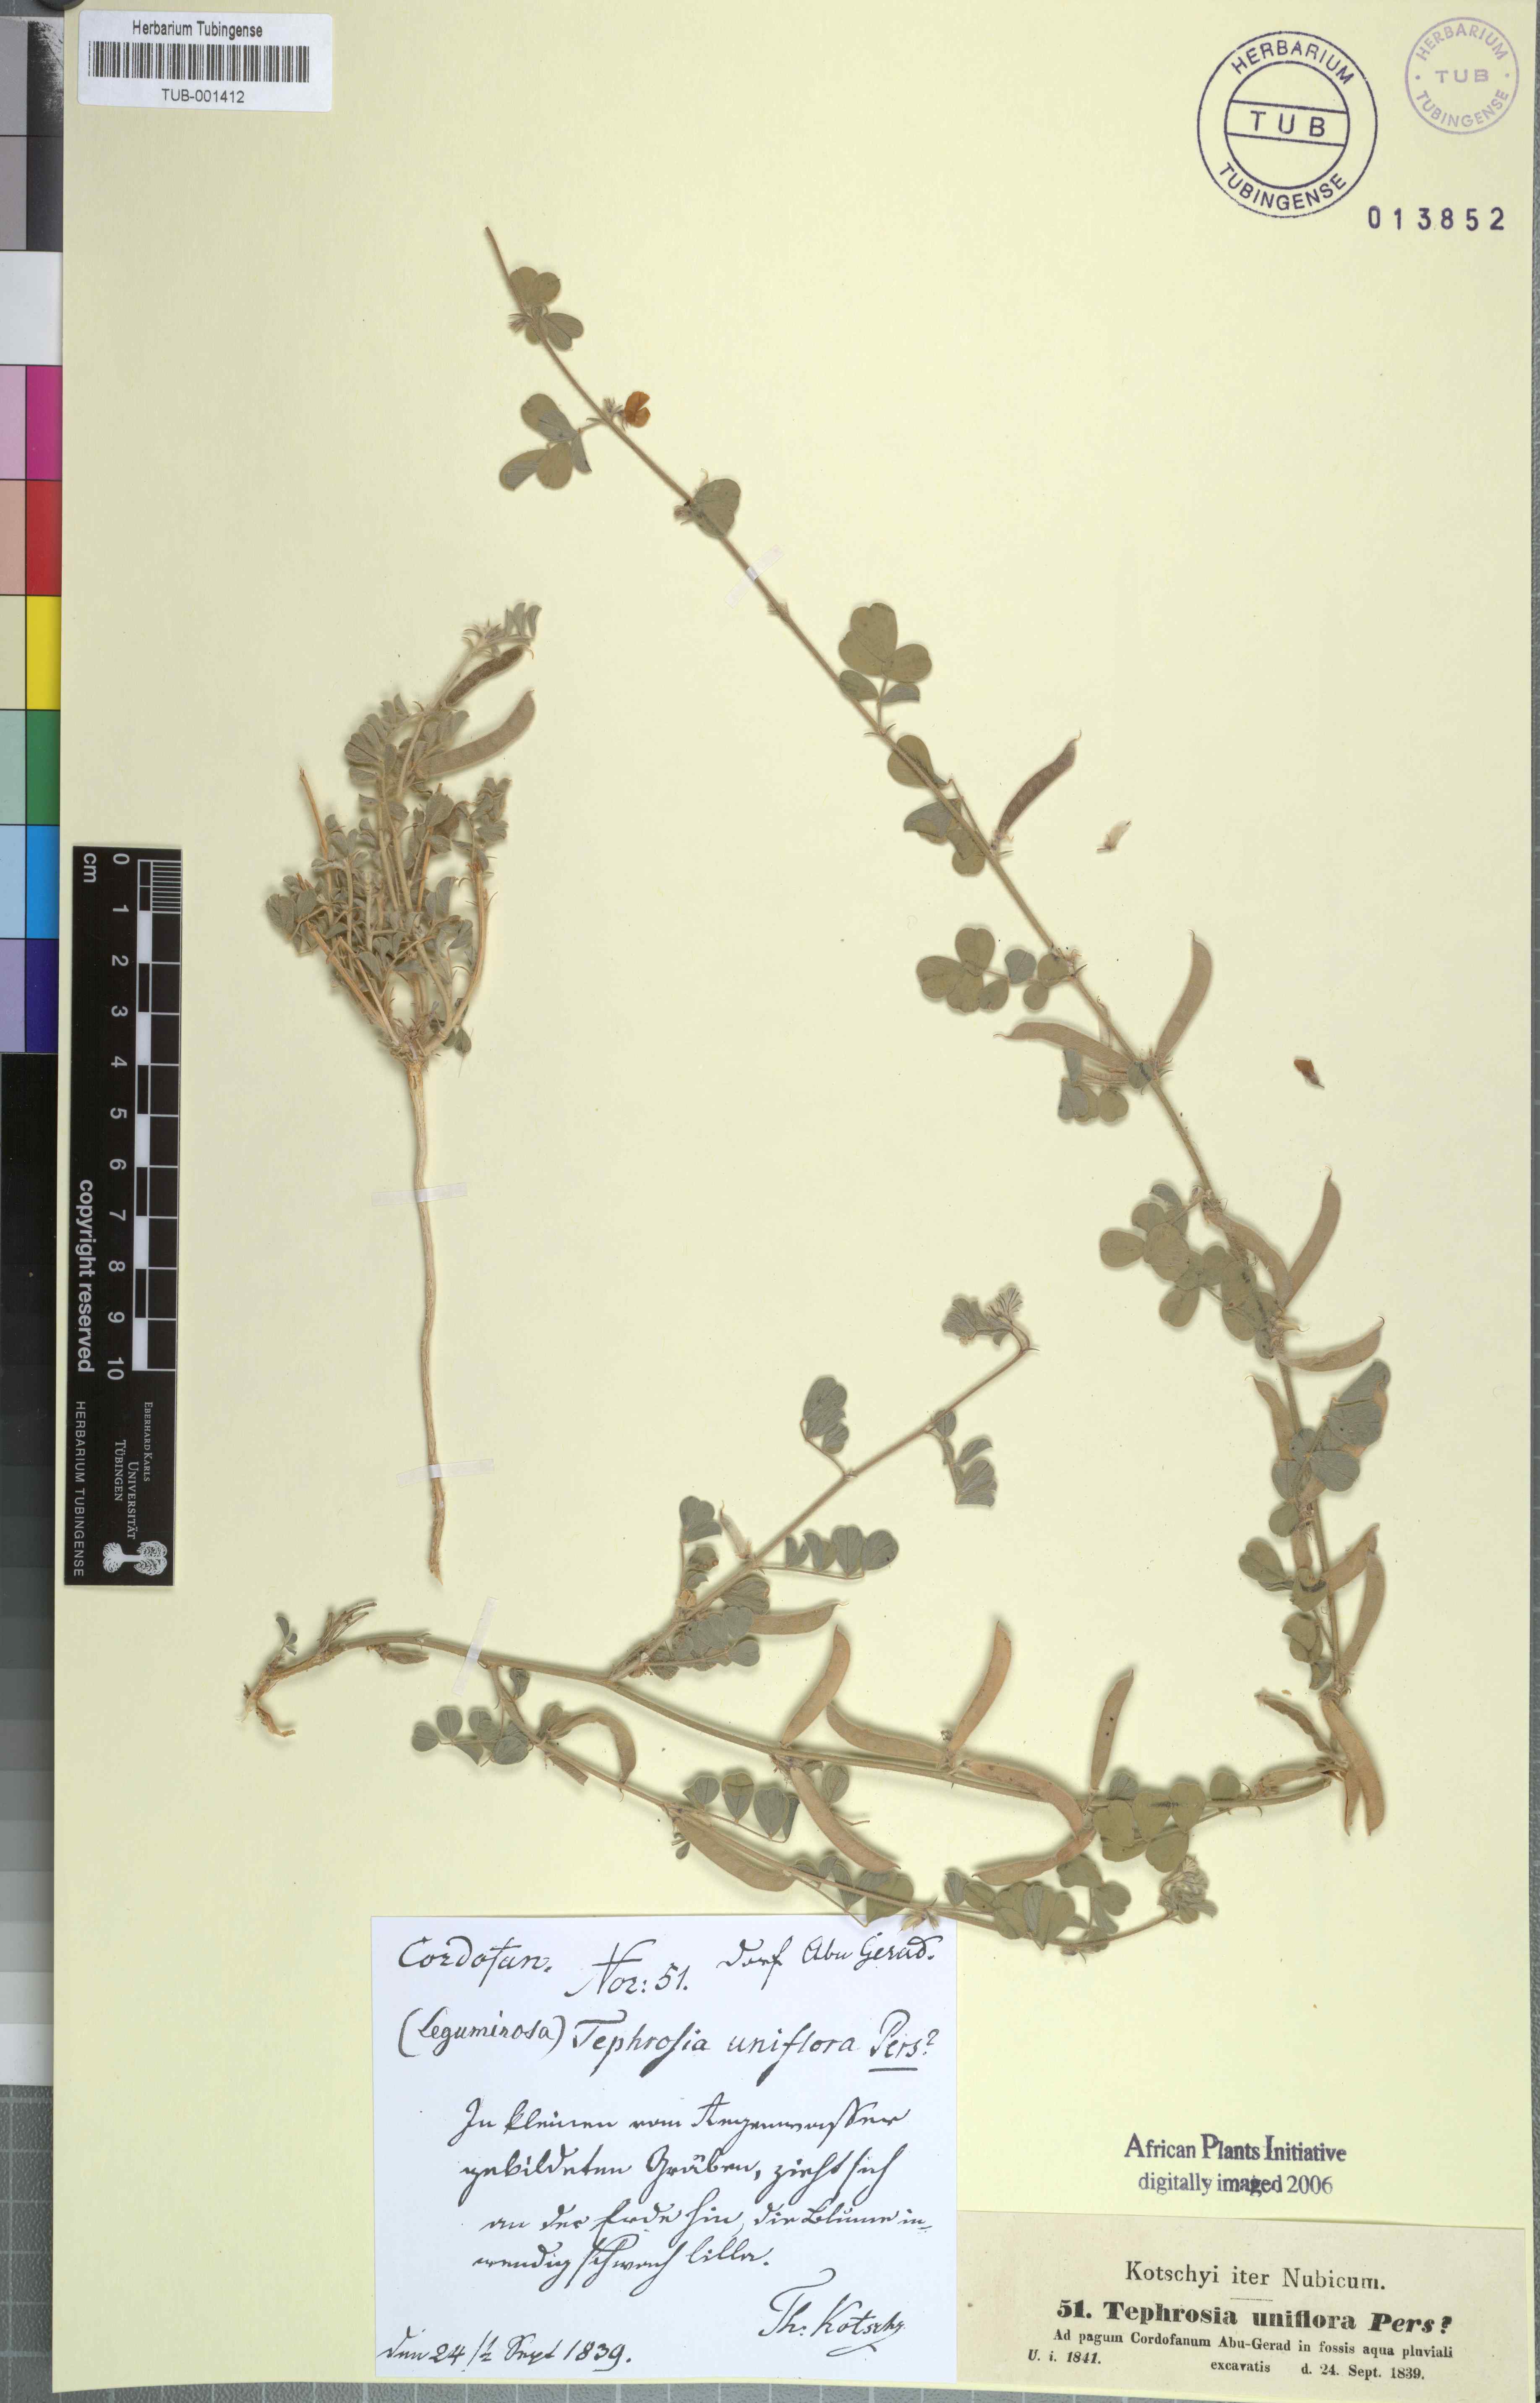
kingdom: Plantae
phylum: Tracheophyta
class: Magnoliopsida
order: Fabales
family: Fabaceae
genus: Tephrosia
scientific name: Tephrosia uniflora
